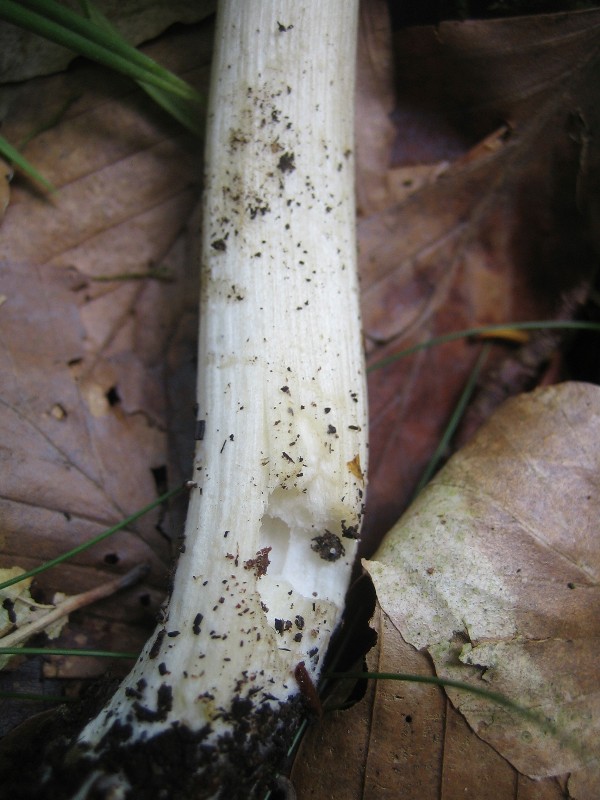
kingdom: Fungi
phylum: Basidiomycota
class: Agaricomycetes
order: Agaricales
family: Tricholomataceae
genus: Megacollybia
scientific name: Megacollybia platyphylla
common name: bredbladet væbnerhat
